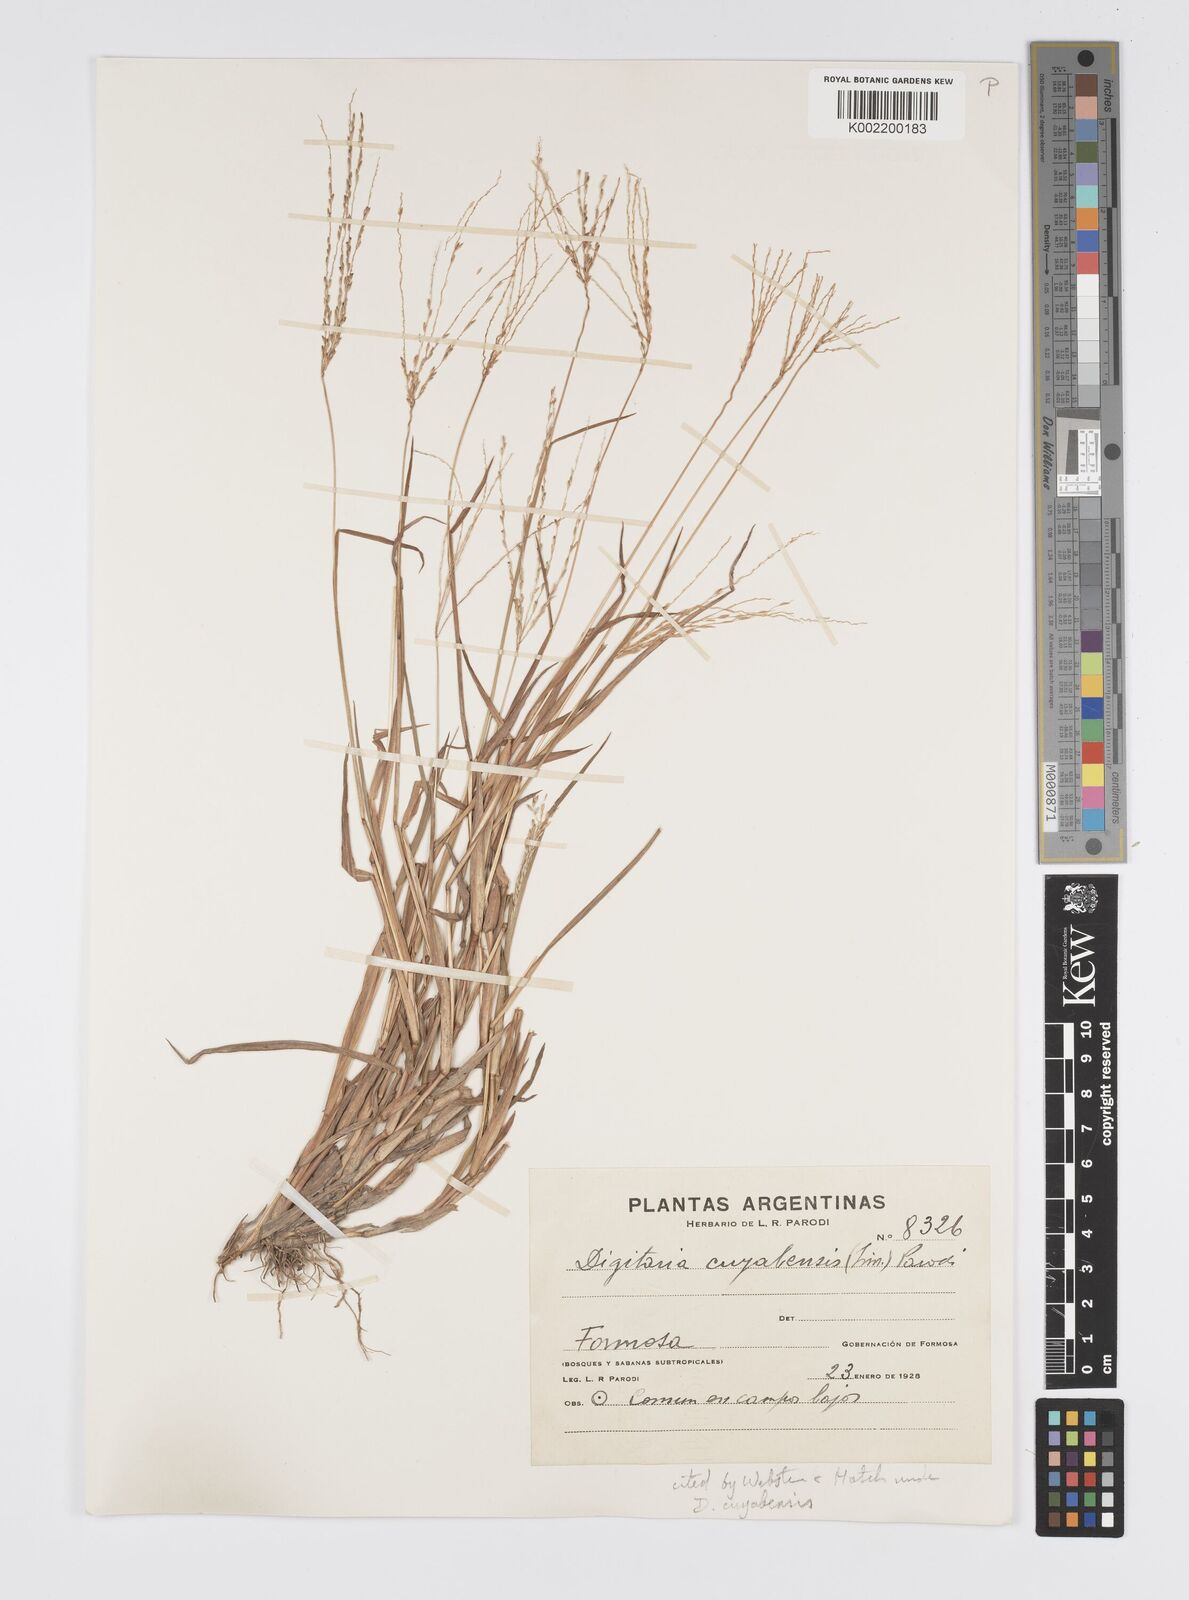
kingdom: Plantae
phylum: Tracheophyta
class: Liliopsida
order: Poales
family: Poaceae
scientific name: Poaceae
